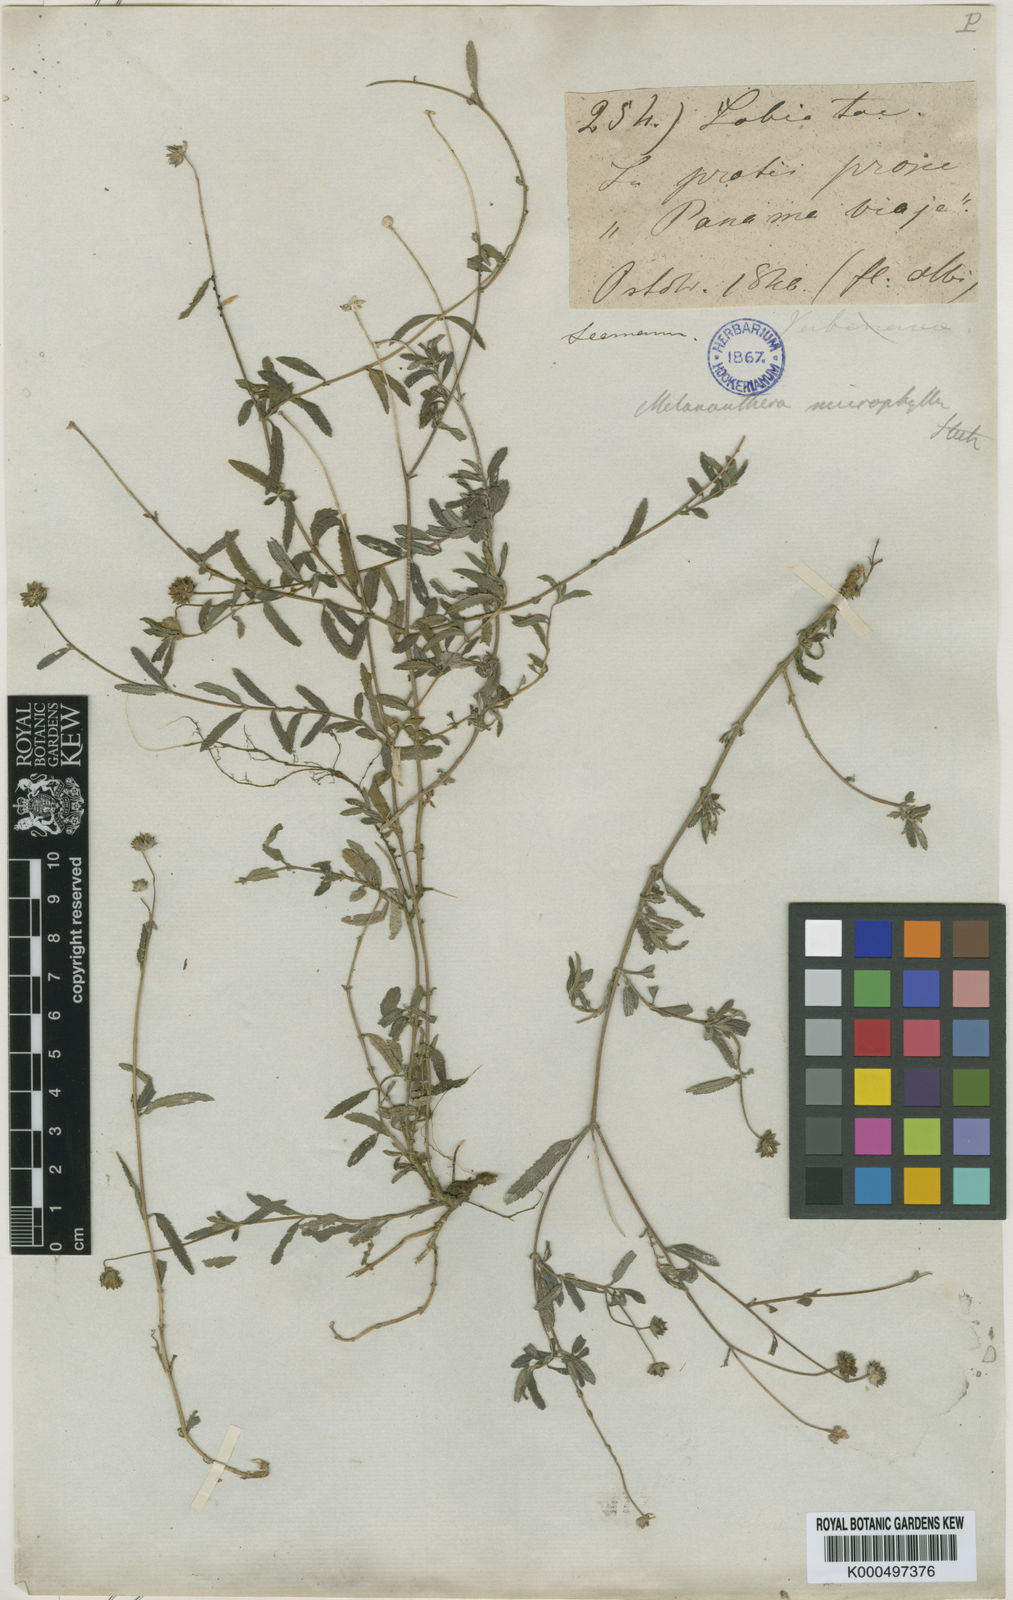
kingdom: Plantae
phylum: Tracheophyta
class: Magnoliopsida
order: Asterales
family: Asteraceae
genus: Melanthera
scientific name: Melanthera nivea
